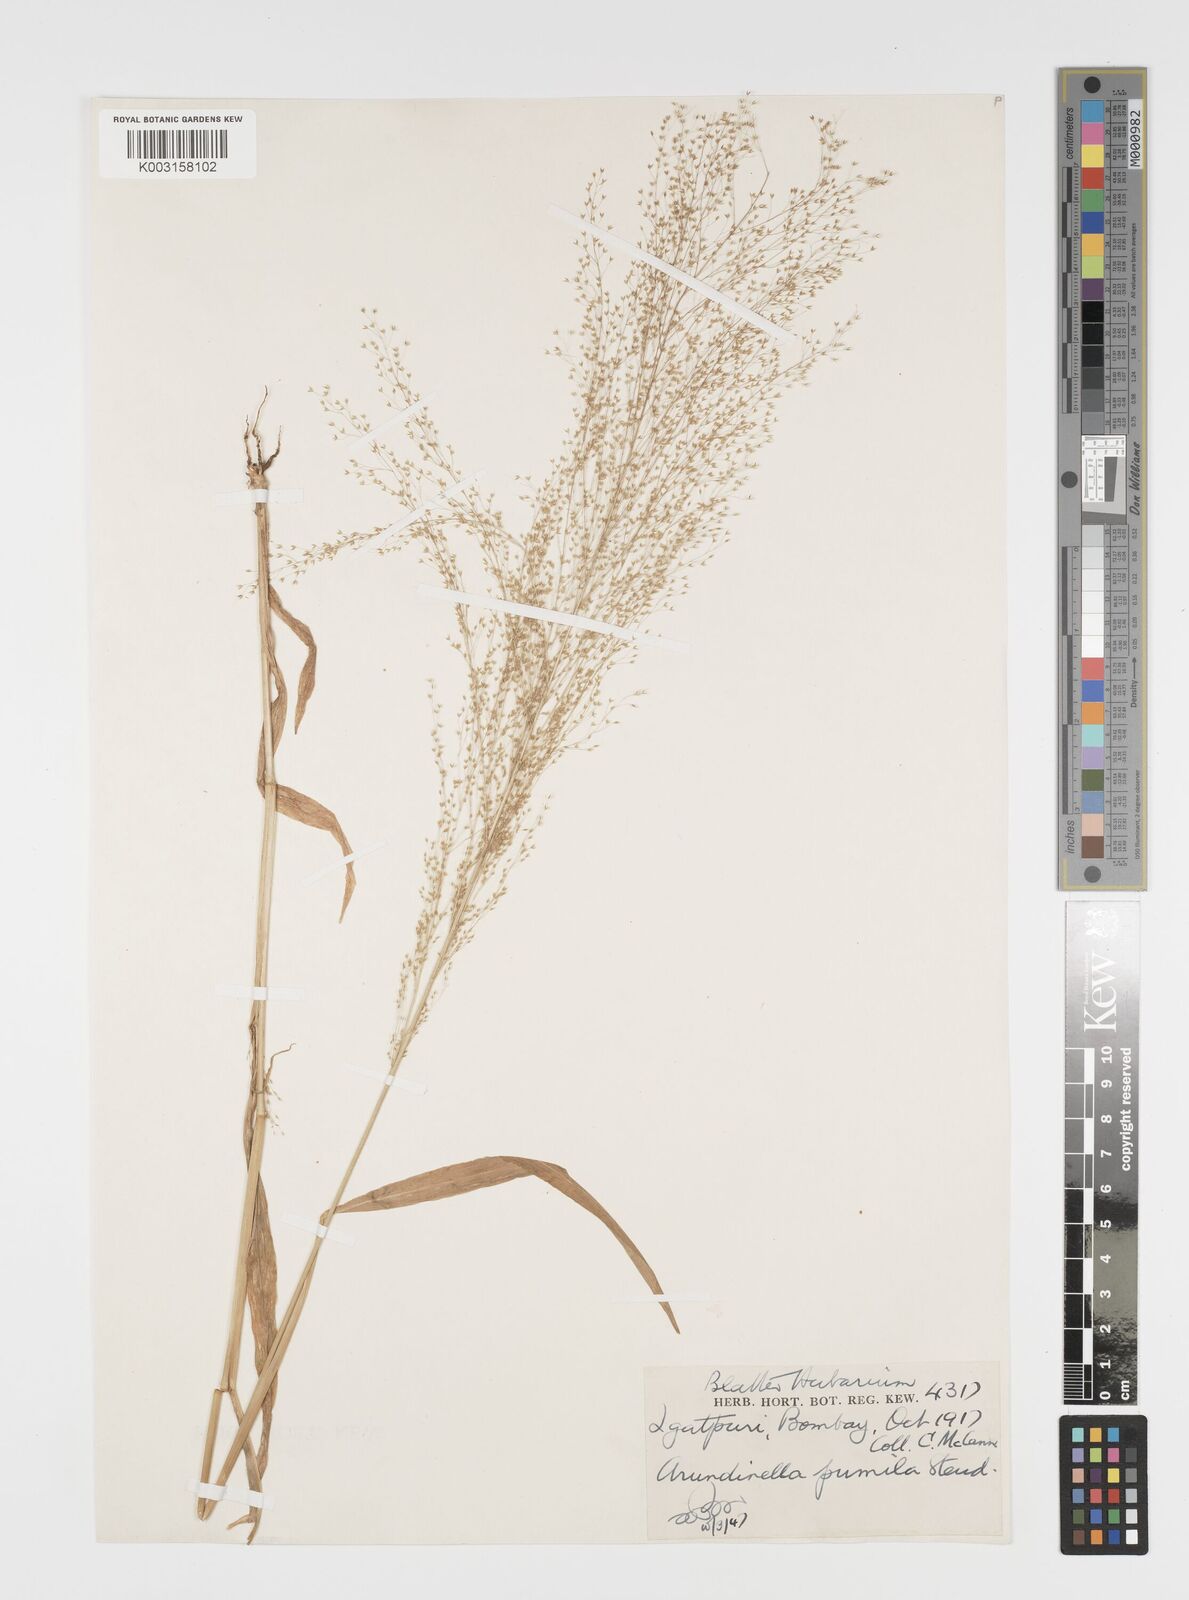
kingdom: Plantae
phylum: Tracheophyta
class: Liliopsida
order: Poales
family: Poaceae
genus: Arundinella
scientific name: Arundinella pumila
